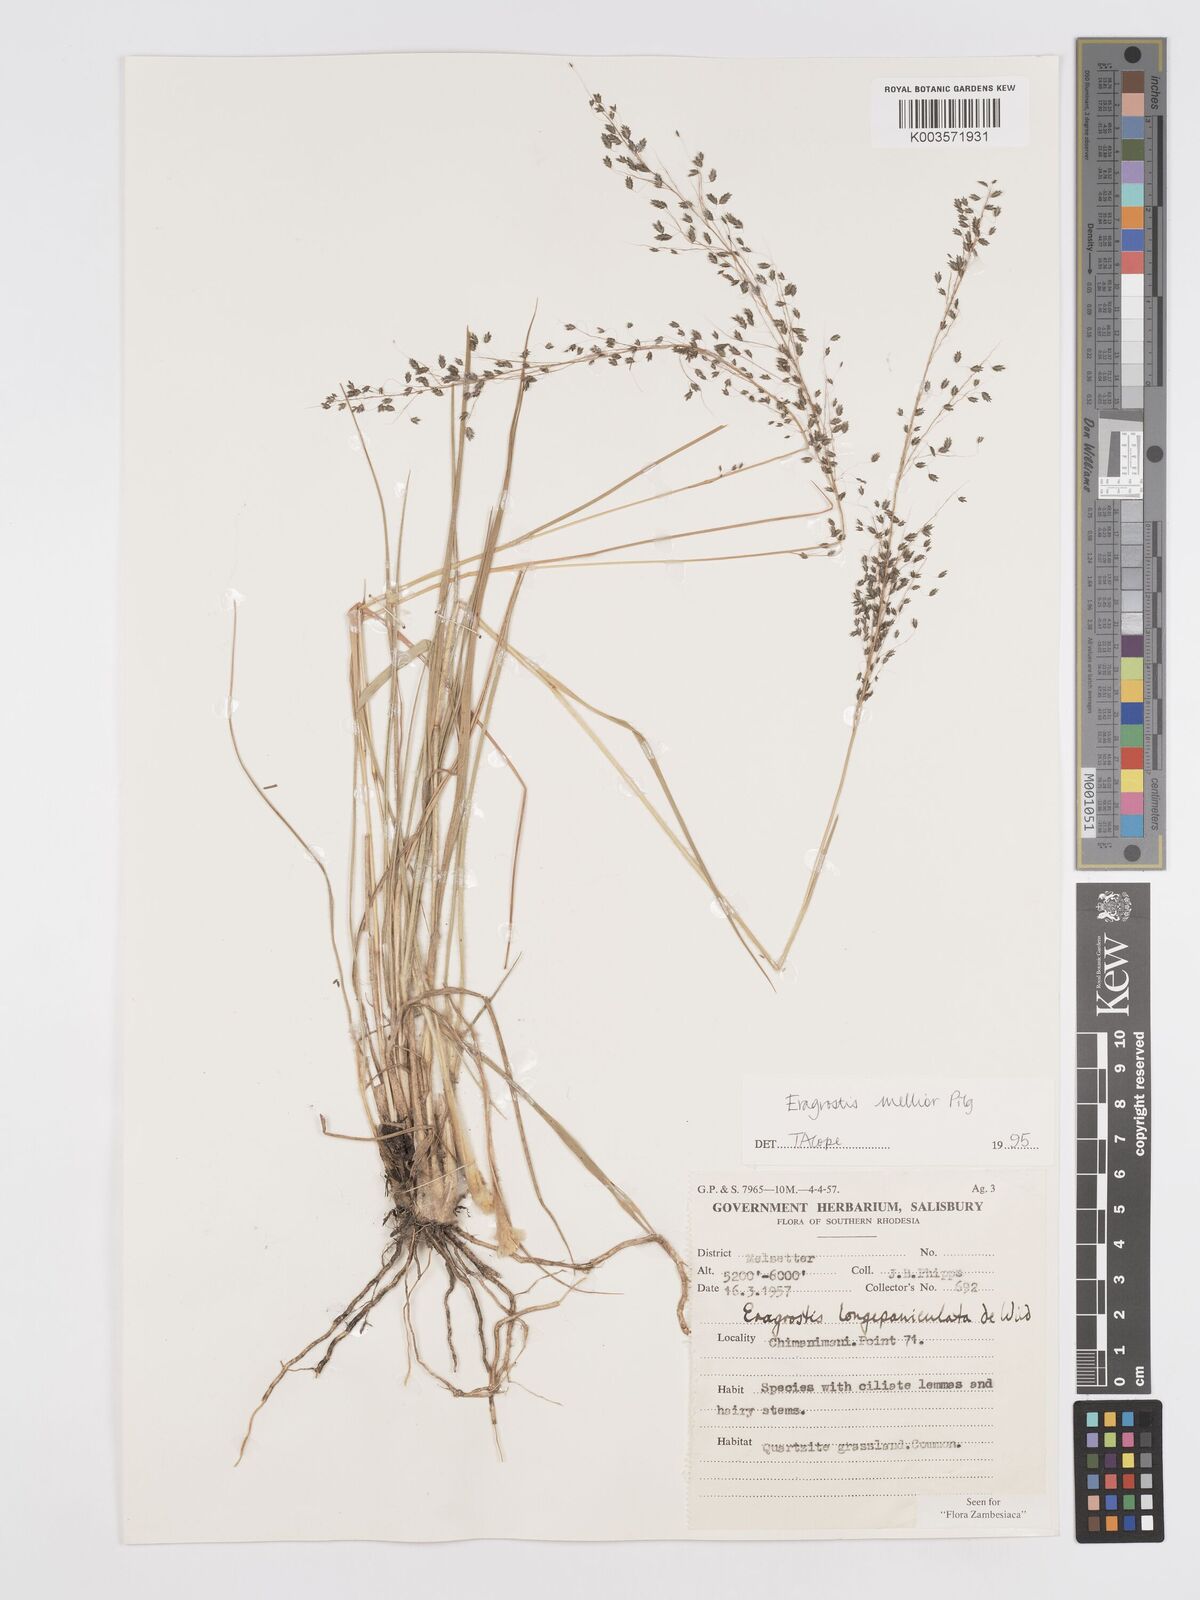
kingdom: Plantae
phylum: Tracheophyta
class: Liliopsida
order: Poales
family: Poaceae
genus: Eragrostis
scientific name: Eragrostis mollior
